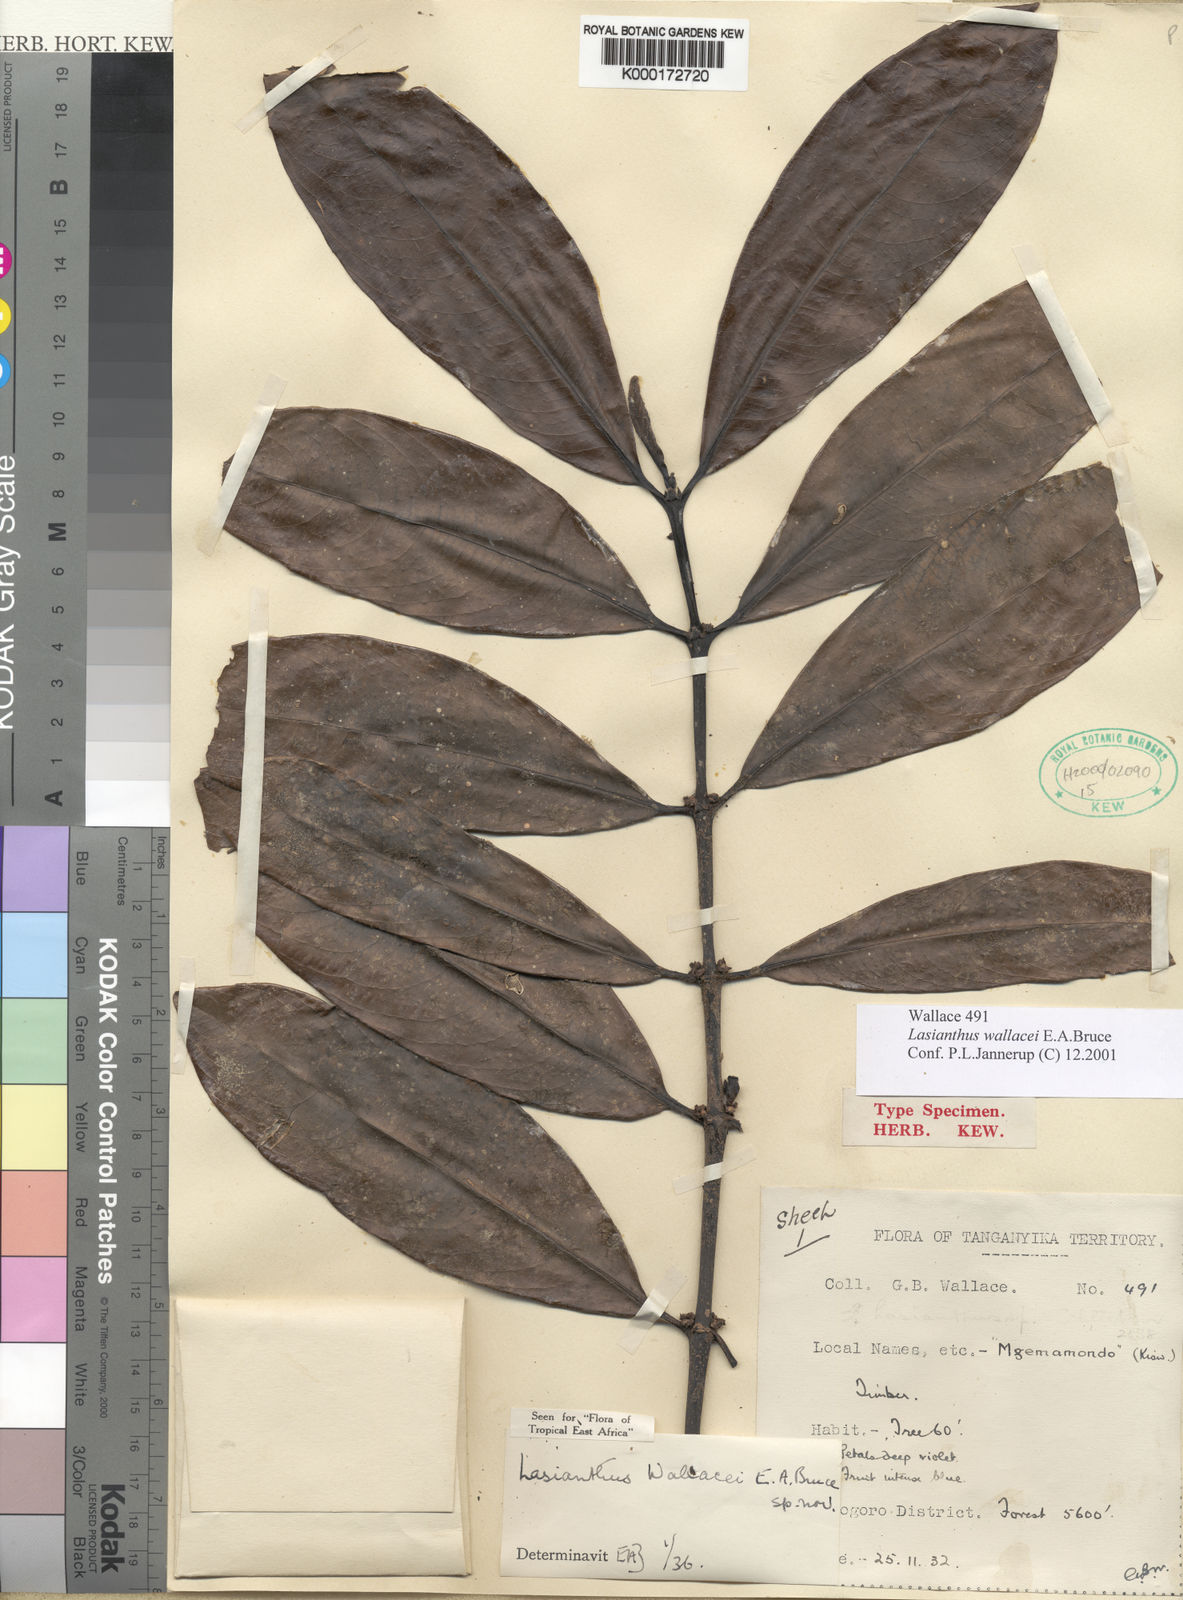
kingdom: Plantae
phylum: Tracheophyta
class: Magnoliopsida
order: Gentianales
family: Rubiaceae
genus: Lasianthus
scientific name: Lasianthus wallacei
